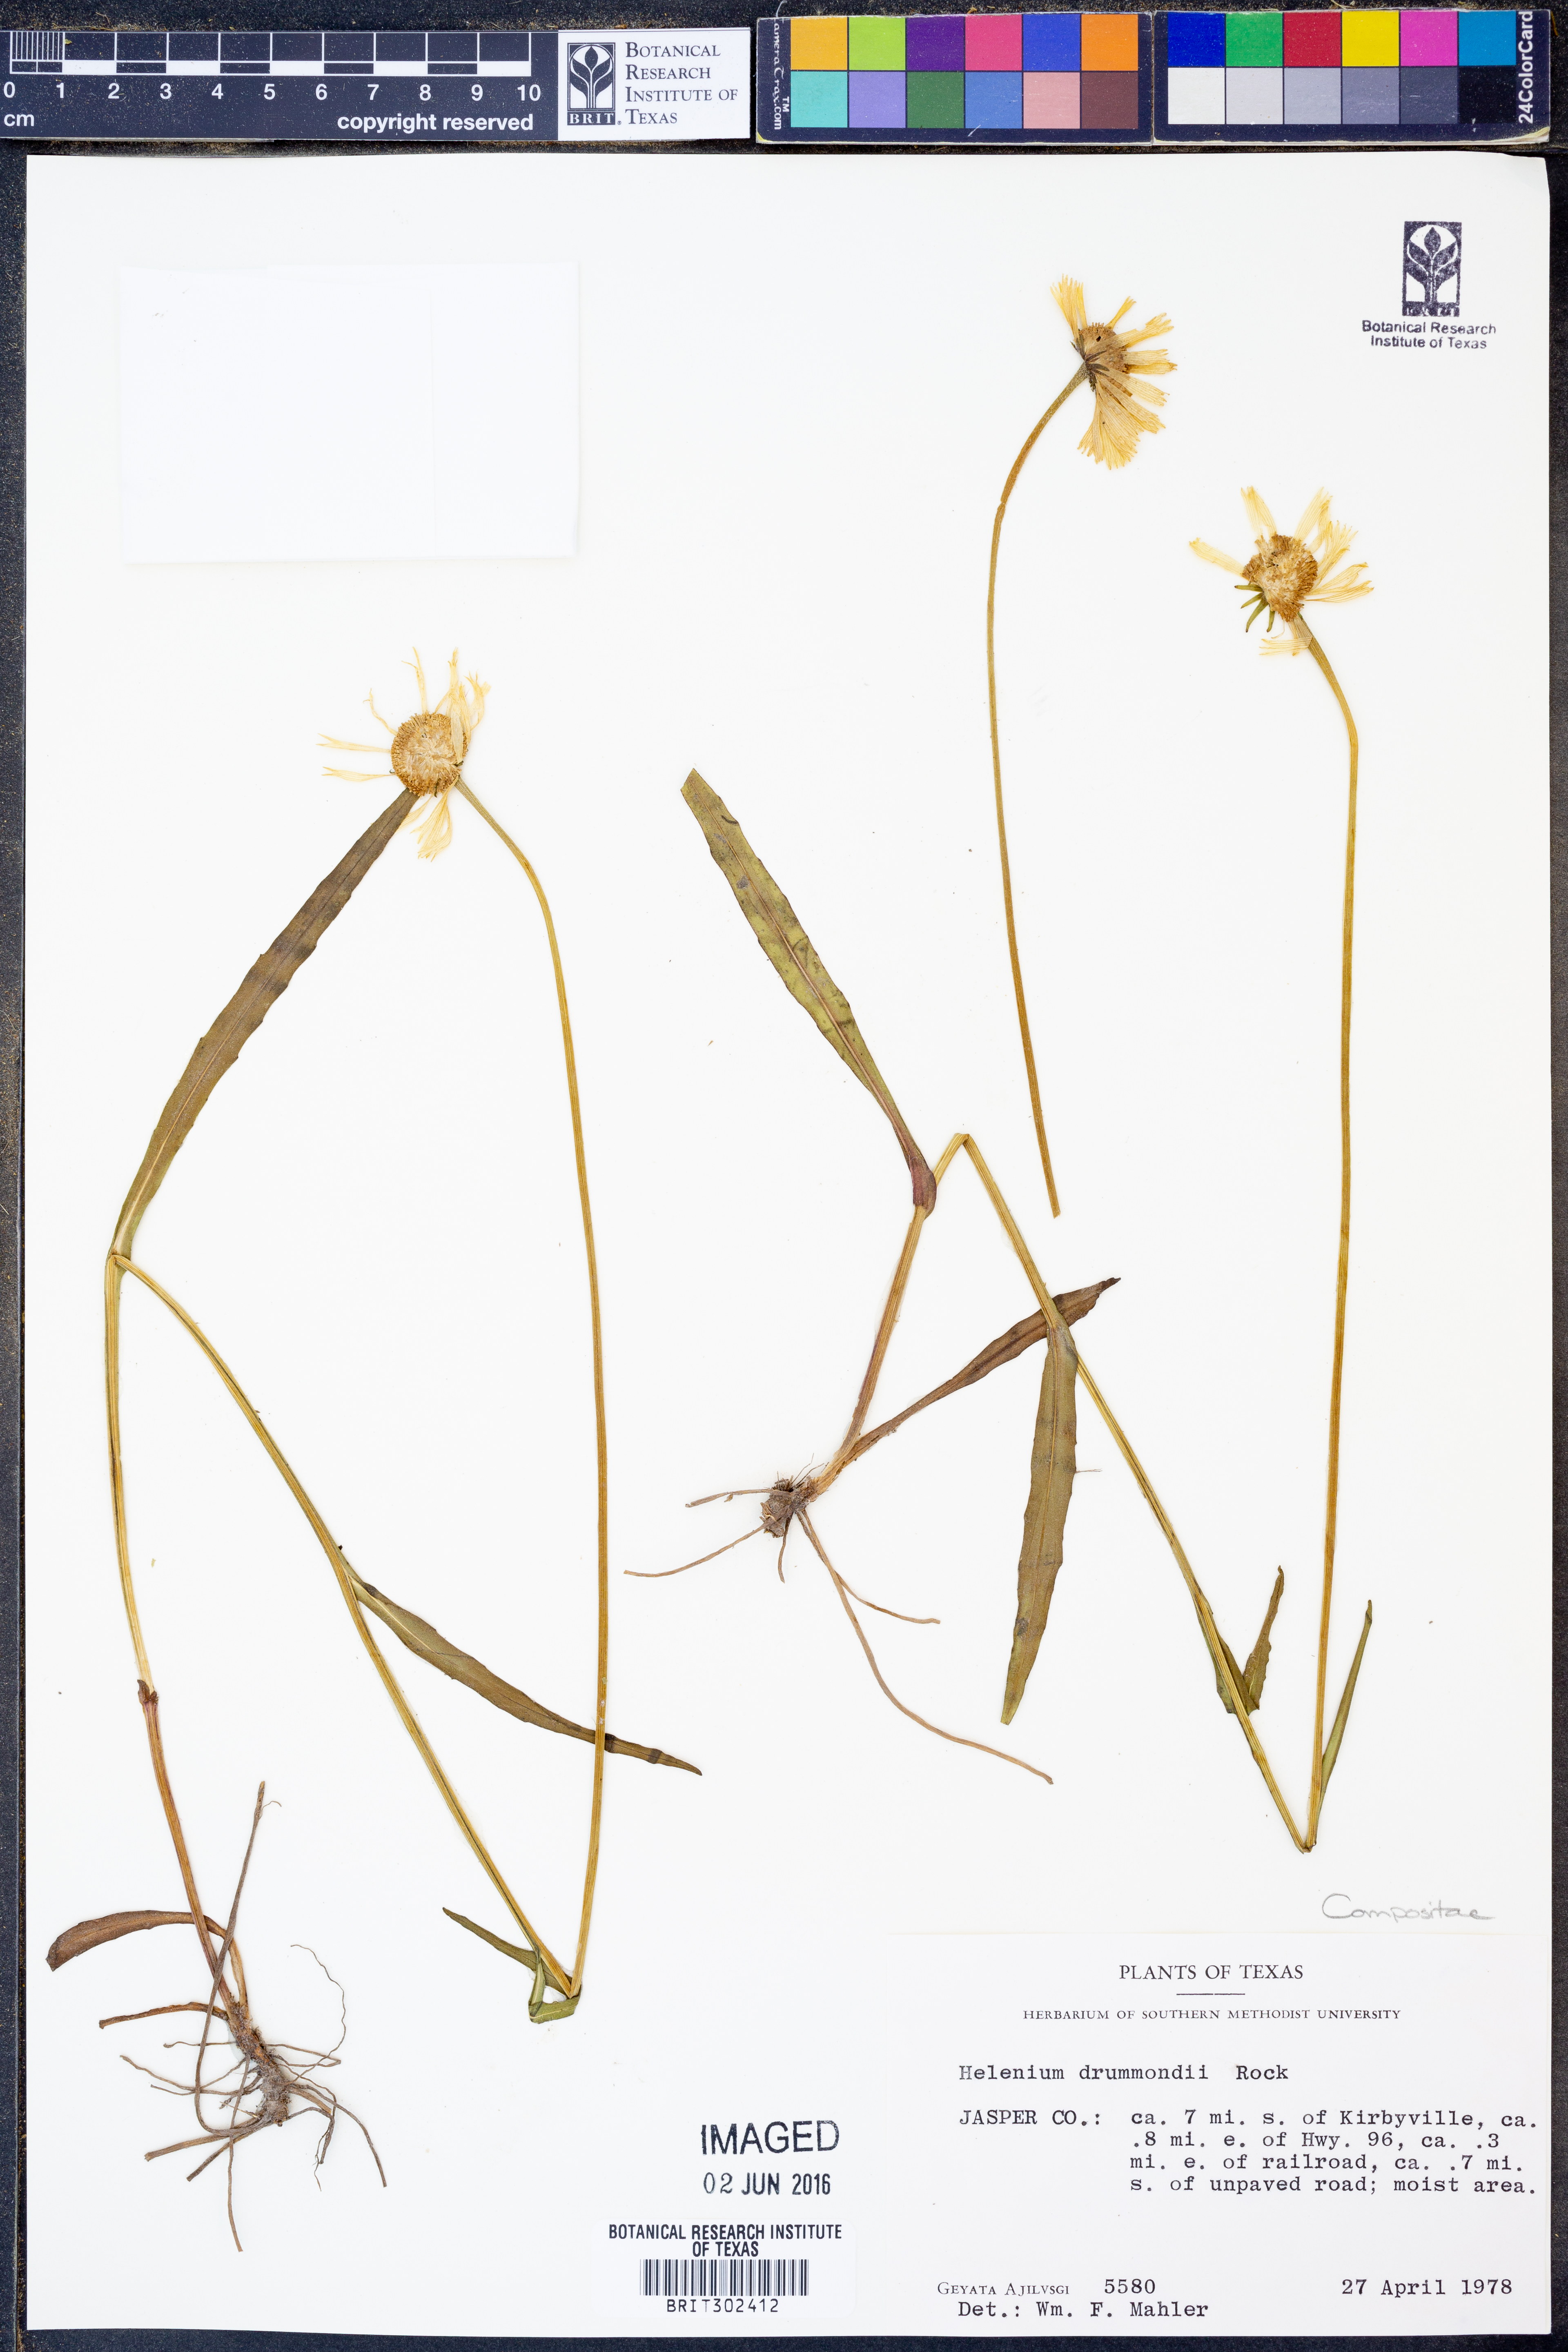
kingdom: Plantae
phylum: Tracheophyta
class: Magnoliopsida
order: Asterales
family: Asteraceae
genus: Helenium
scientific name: Helenium drummondii
